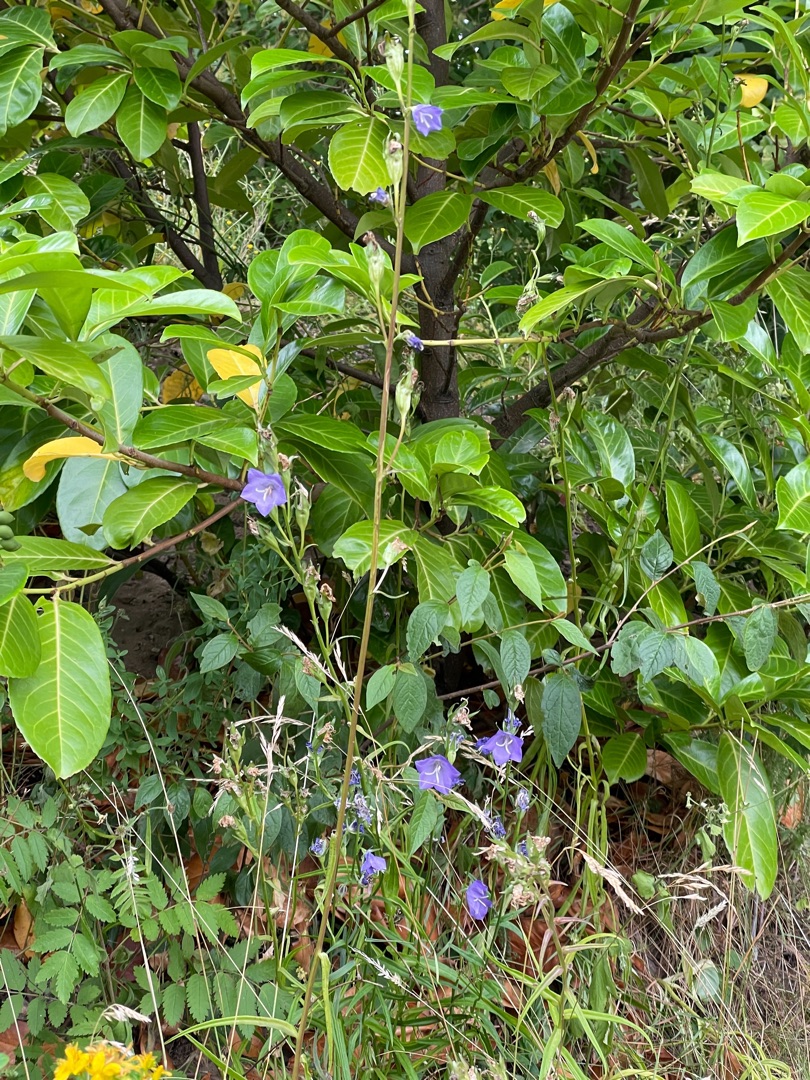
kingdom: Plantae
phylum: Tracheophyta
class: Magnoliopsida
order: Asterales
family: Campanulaceae
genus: Campanula
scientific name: Campanula persicifolia
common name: Smalbladet klokke
